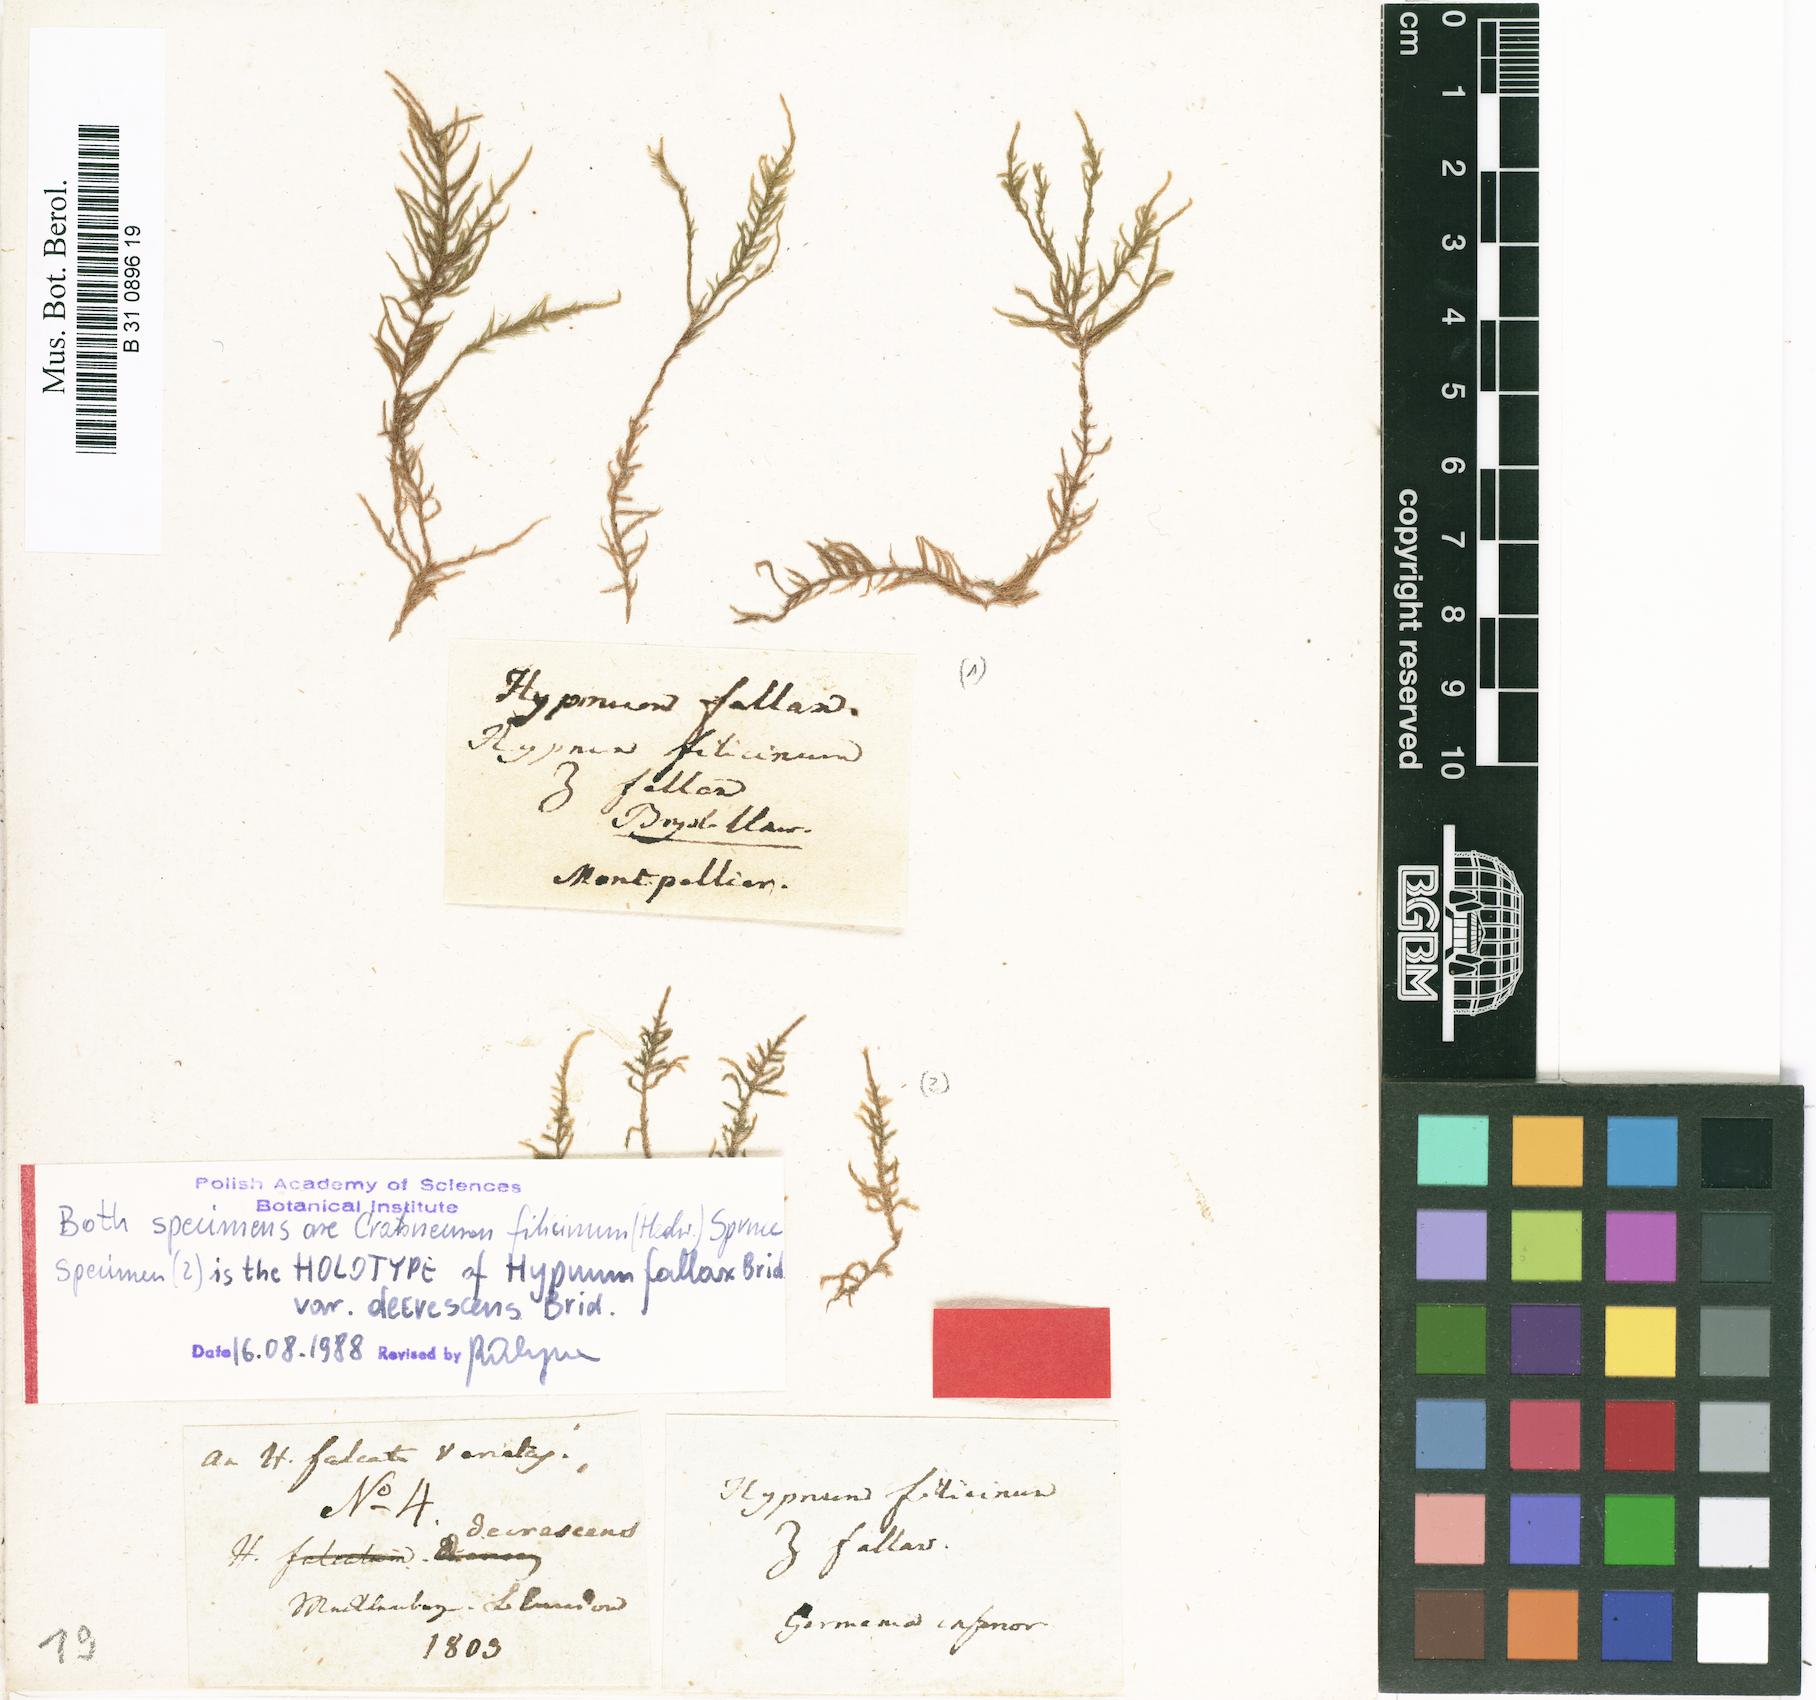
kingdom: Plantae
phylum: Bryophyta
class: Bryopsida
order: Hypnales
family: Amblystegiaceae
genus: Cratoneuron
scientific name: Cratoneuron filicinum
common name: Fern-leaved hook moss
